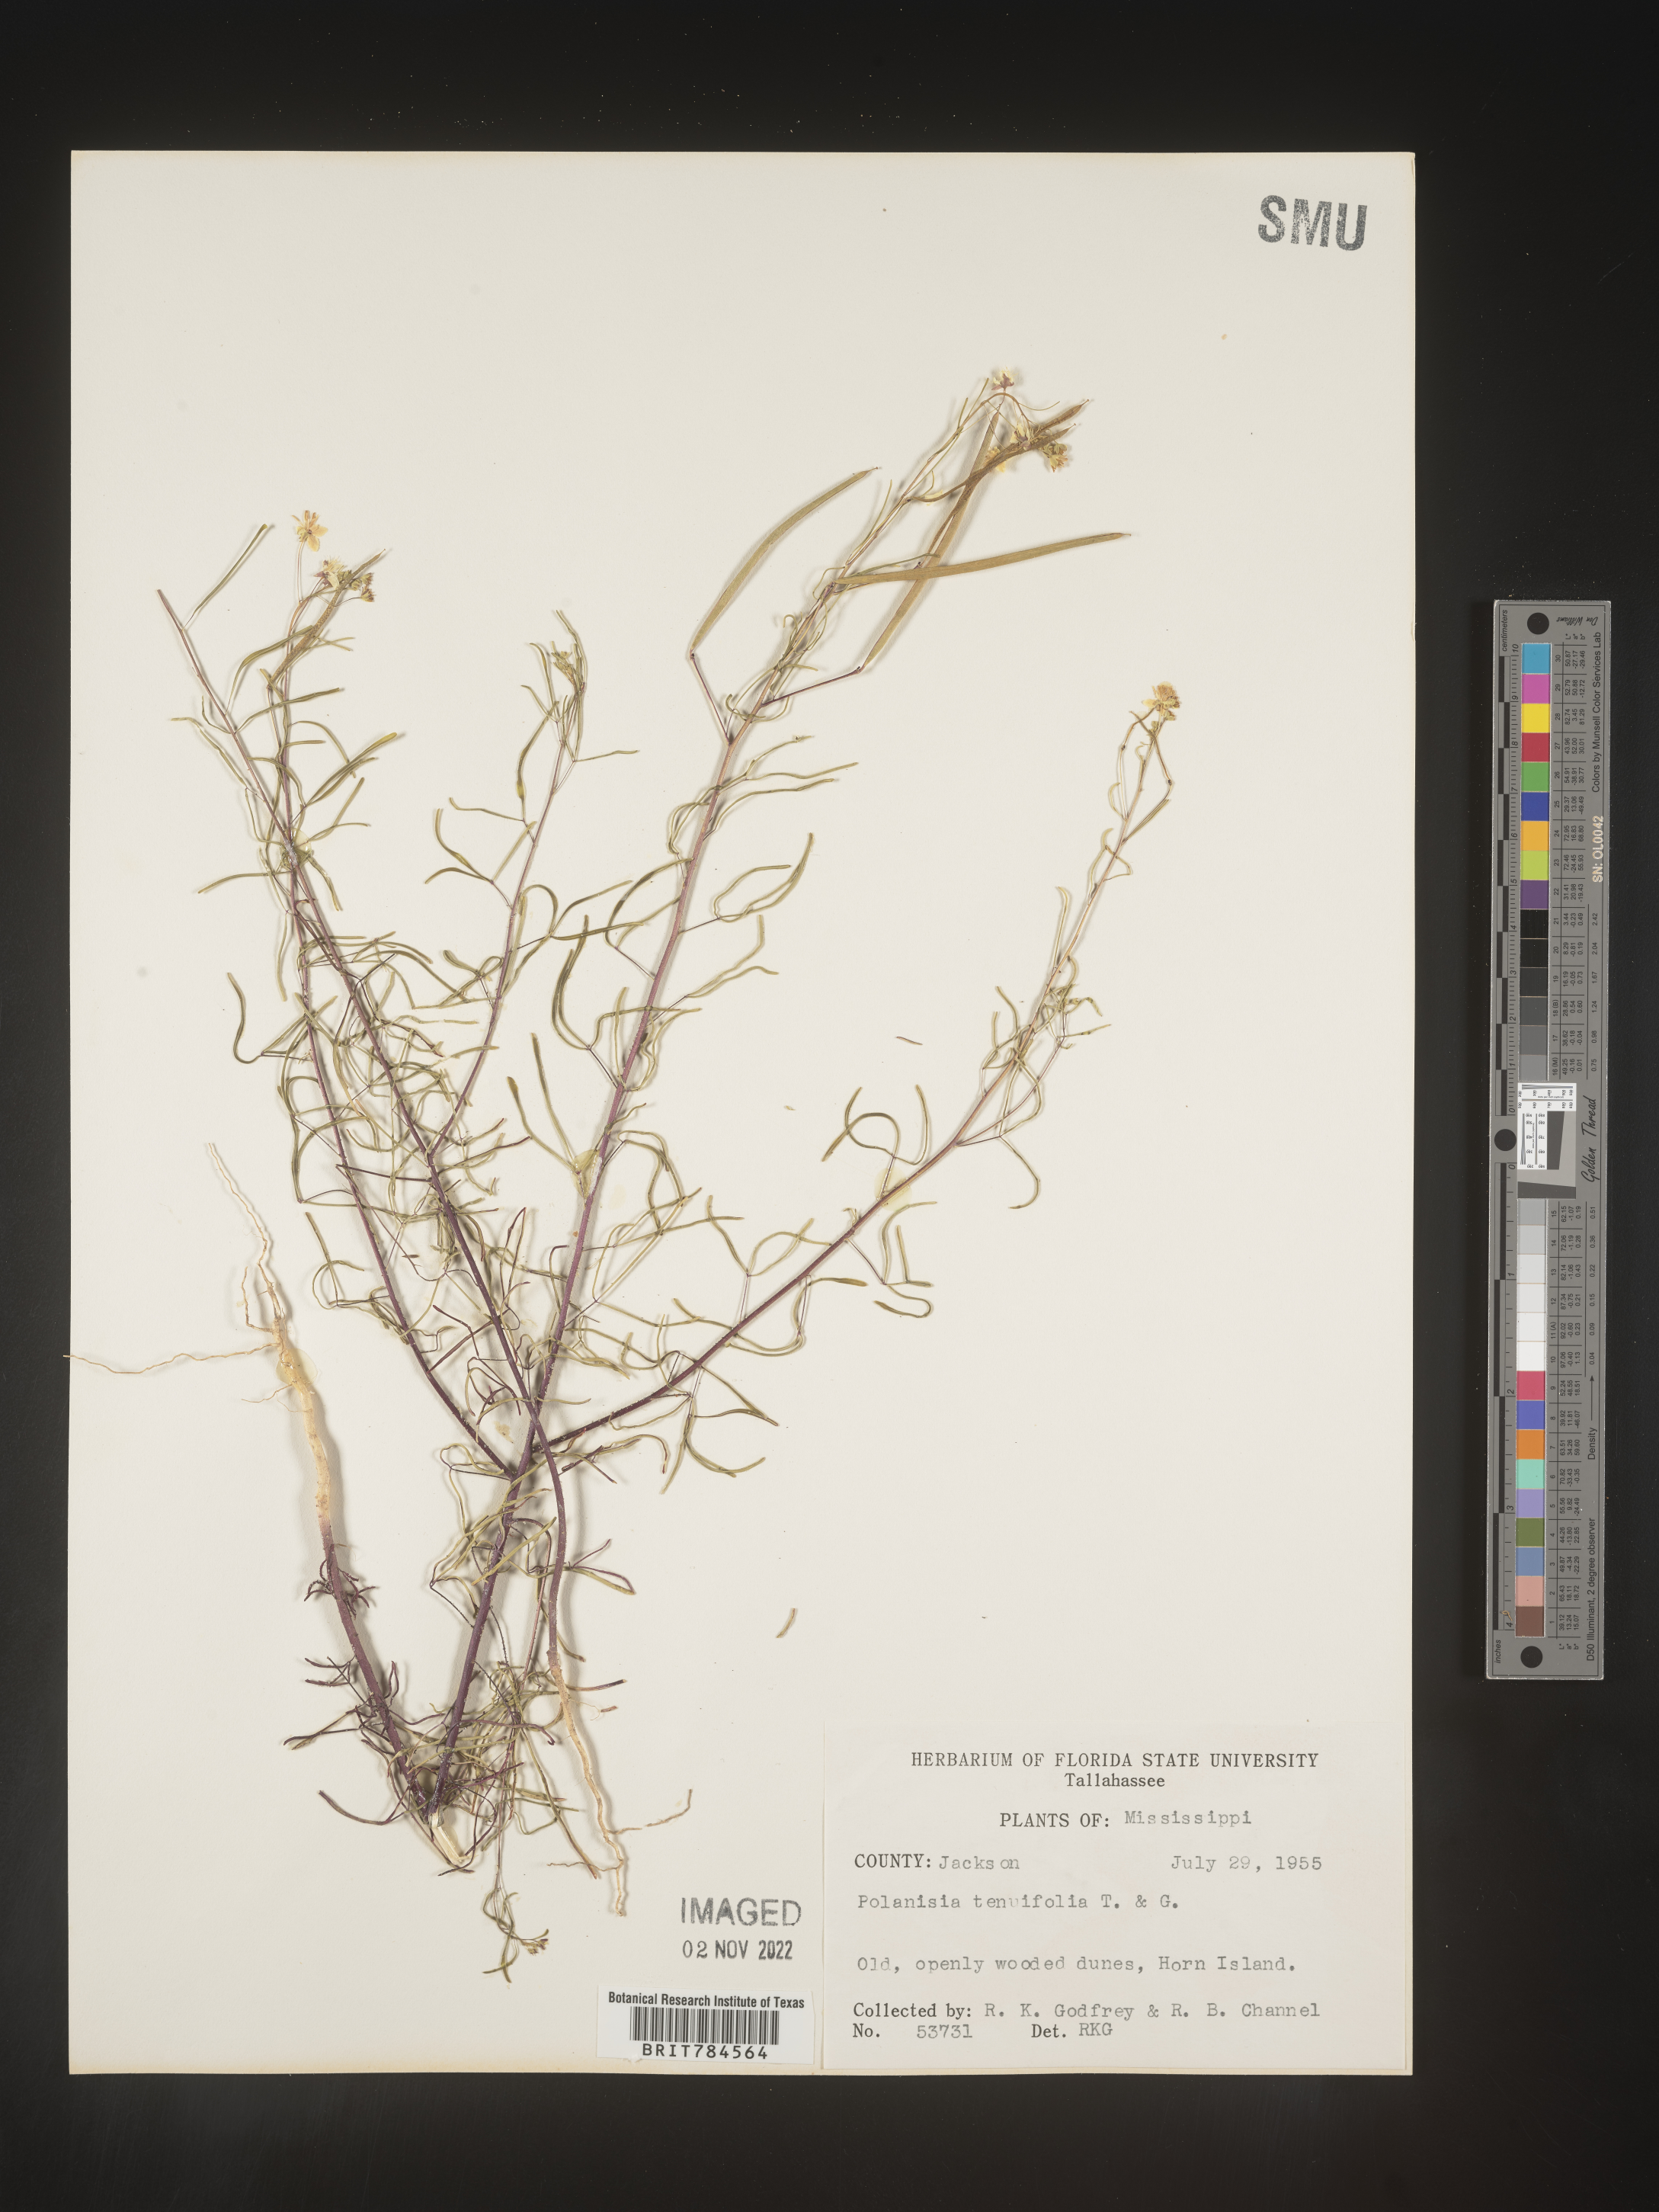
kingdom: Plantae
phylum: Tracheophyta
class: Magnoliopsida
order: Brassicales
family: Cleomaceae
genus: Polanisia
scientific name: Polanisia
